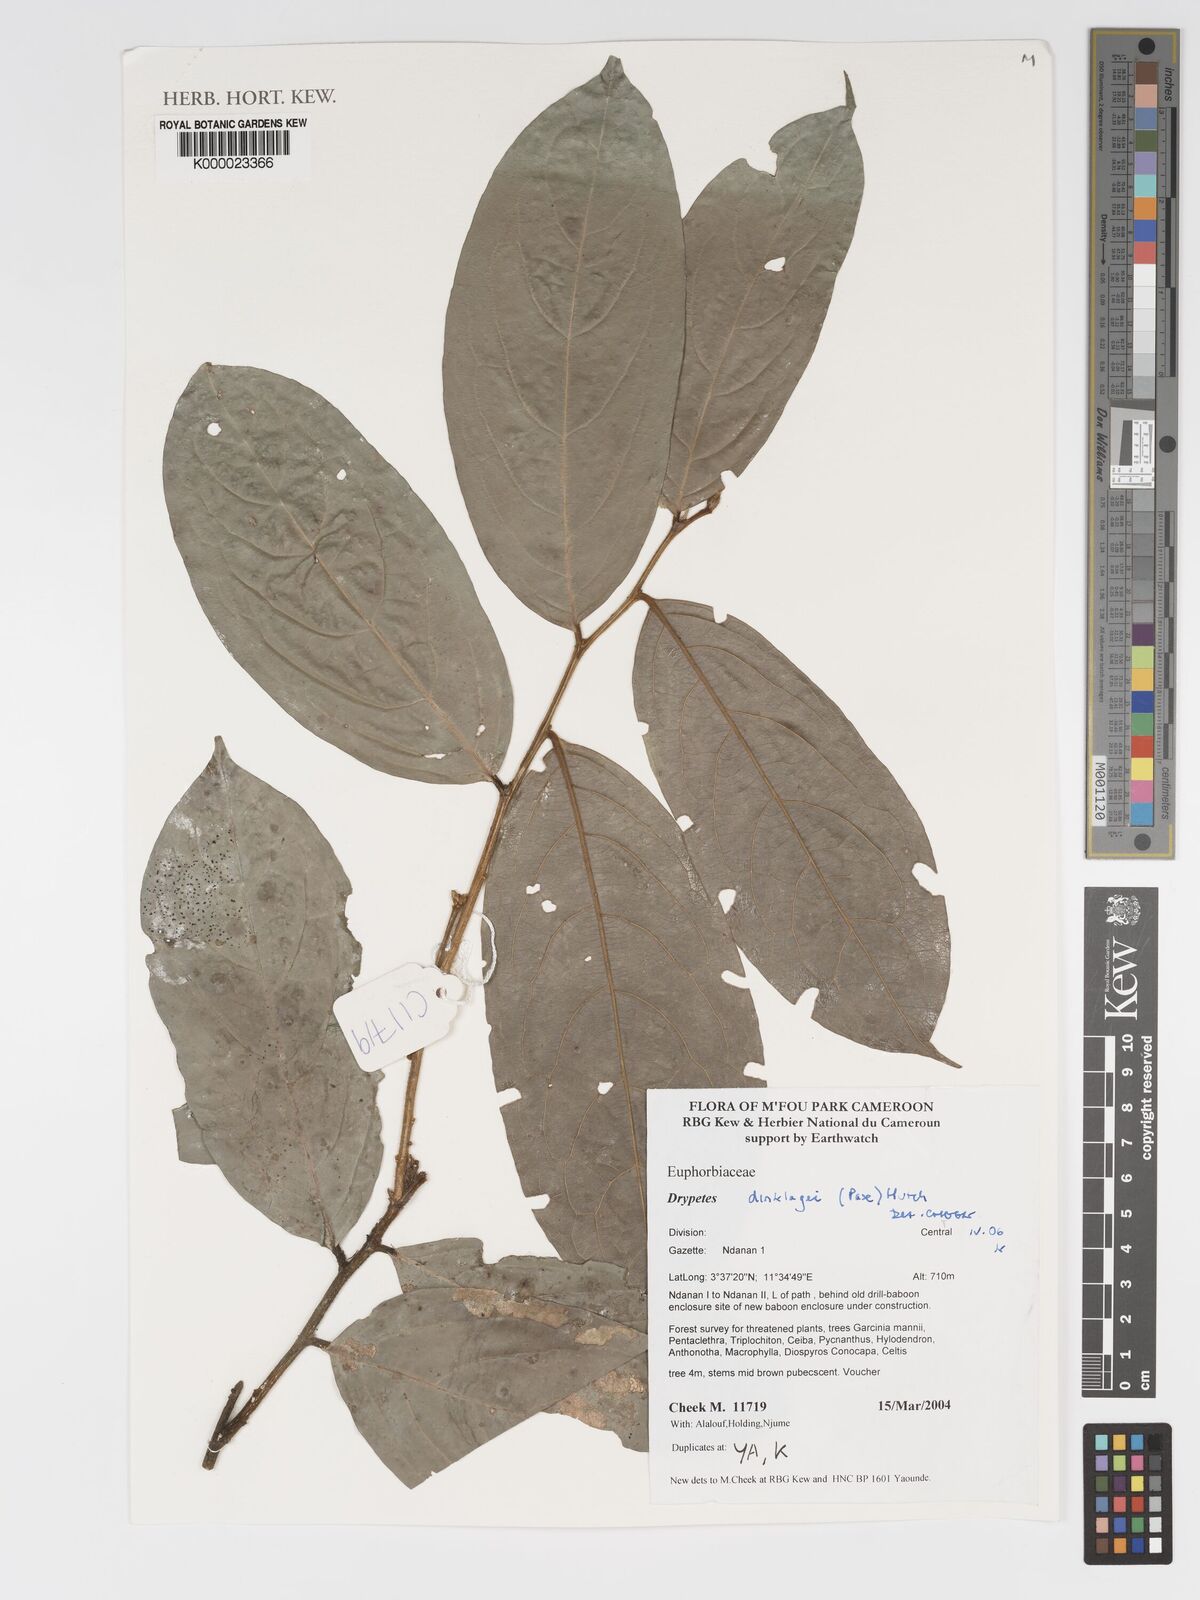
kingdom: Plantae
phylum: Tracheophyta
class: Magnoliopsida
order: Malpighiales
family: Putranjivaceae
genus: Drypetes
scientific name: Drypetes dinklagei
